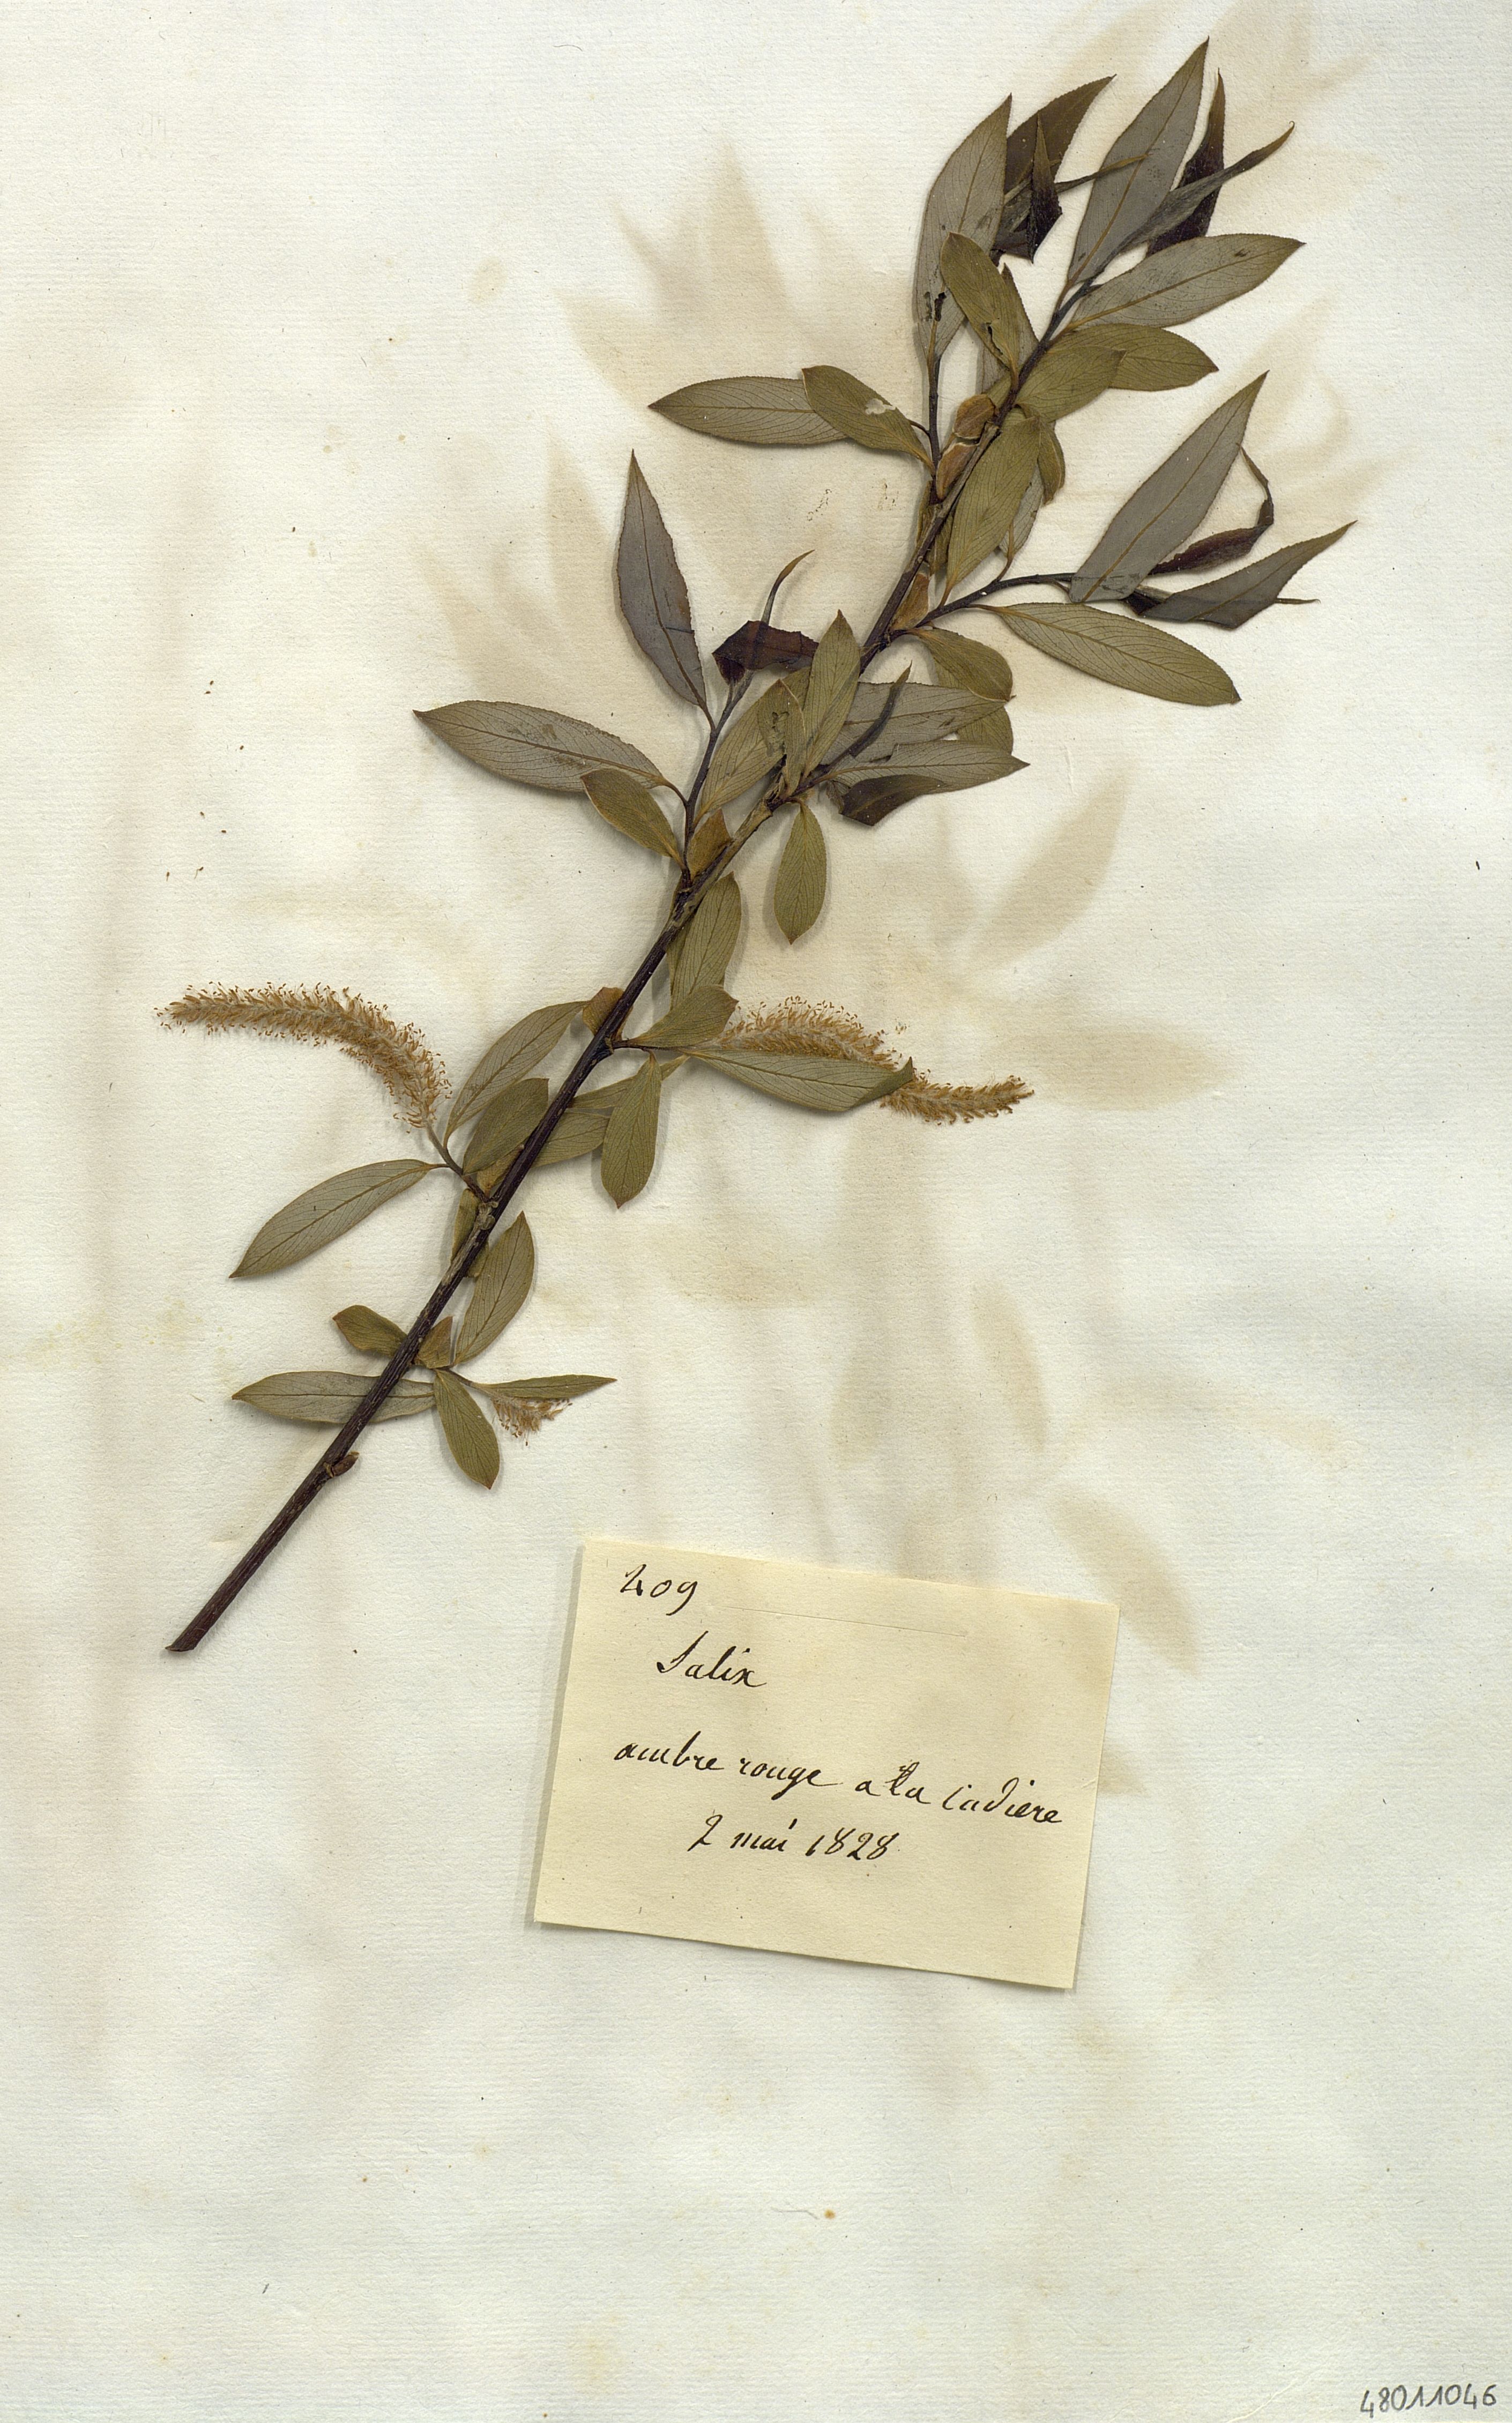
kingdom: Plantae
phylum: Tracheophyta
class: Magnoliopsida
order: Malpighiales
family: Salicaceae
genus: Salix
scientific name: Salix
